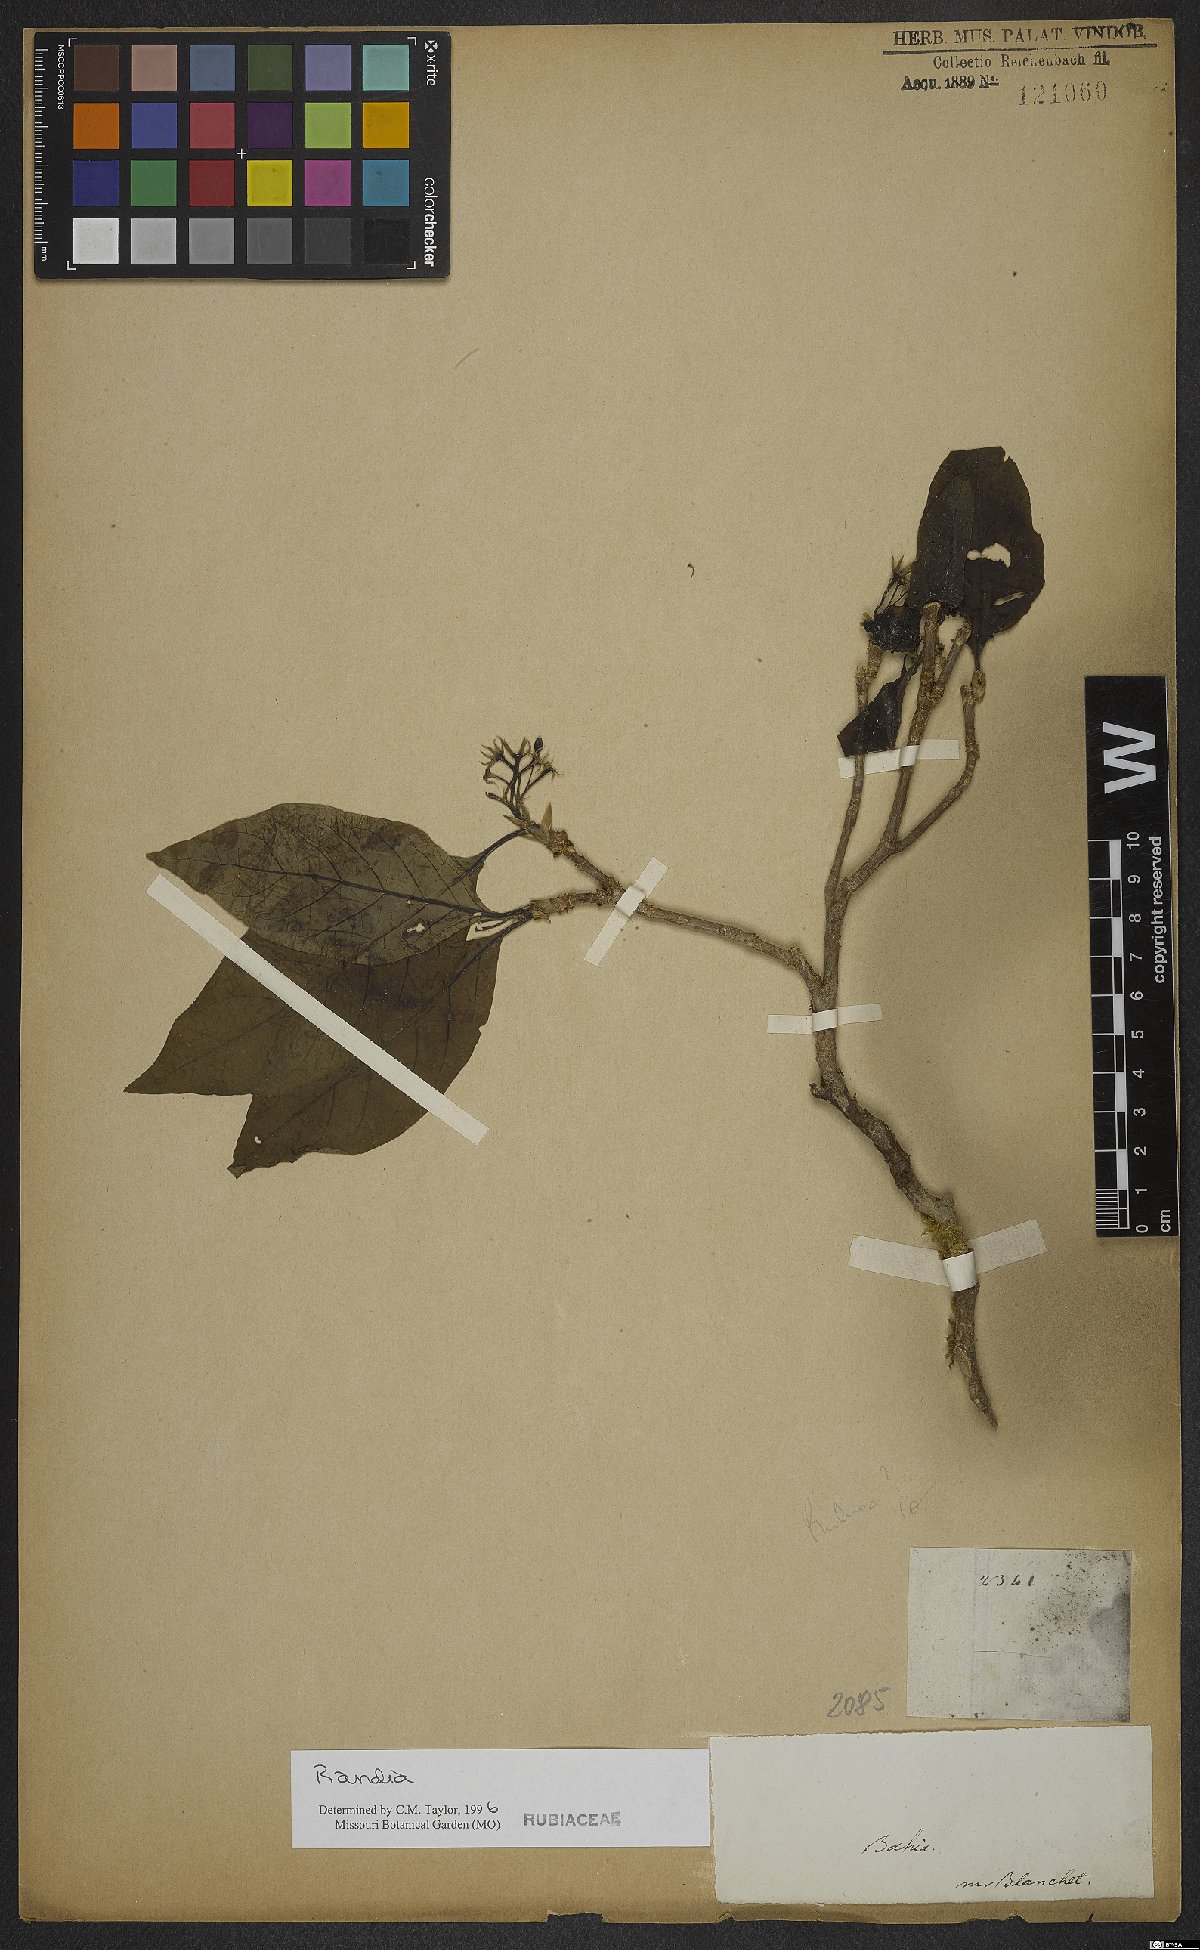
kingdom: Plantae
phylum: Tracheophyta
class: Magnoliopsida
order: Gentianales
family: Rubiaceae
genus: Randia
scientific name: Randia
